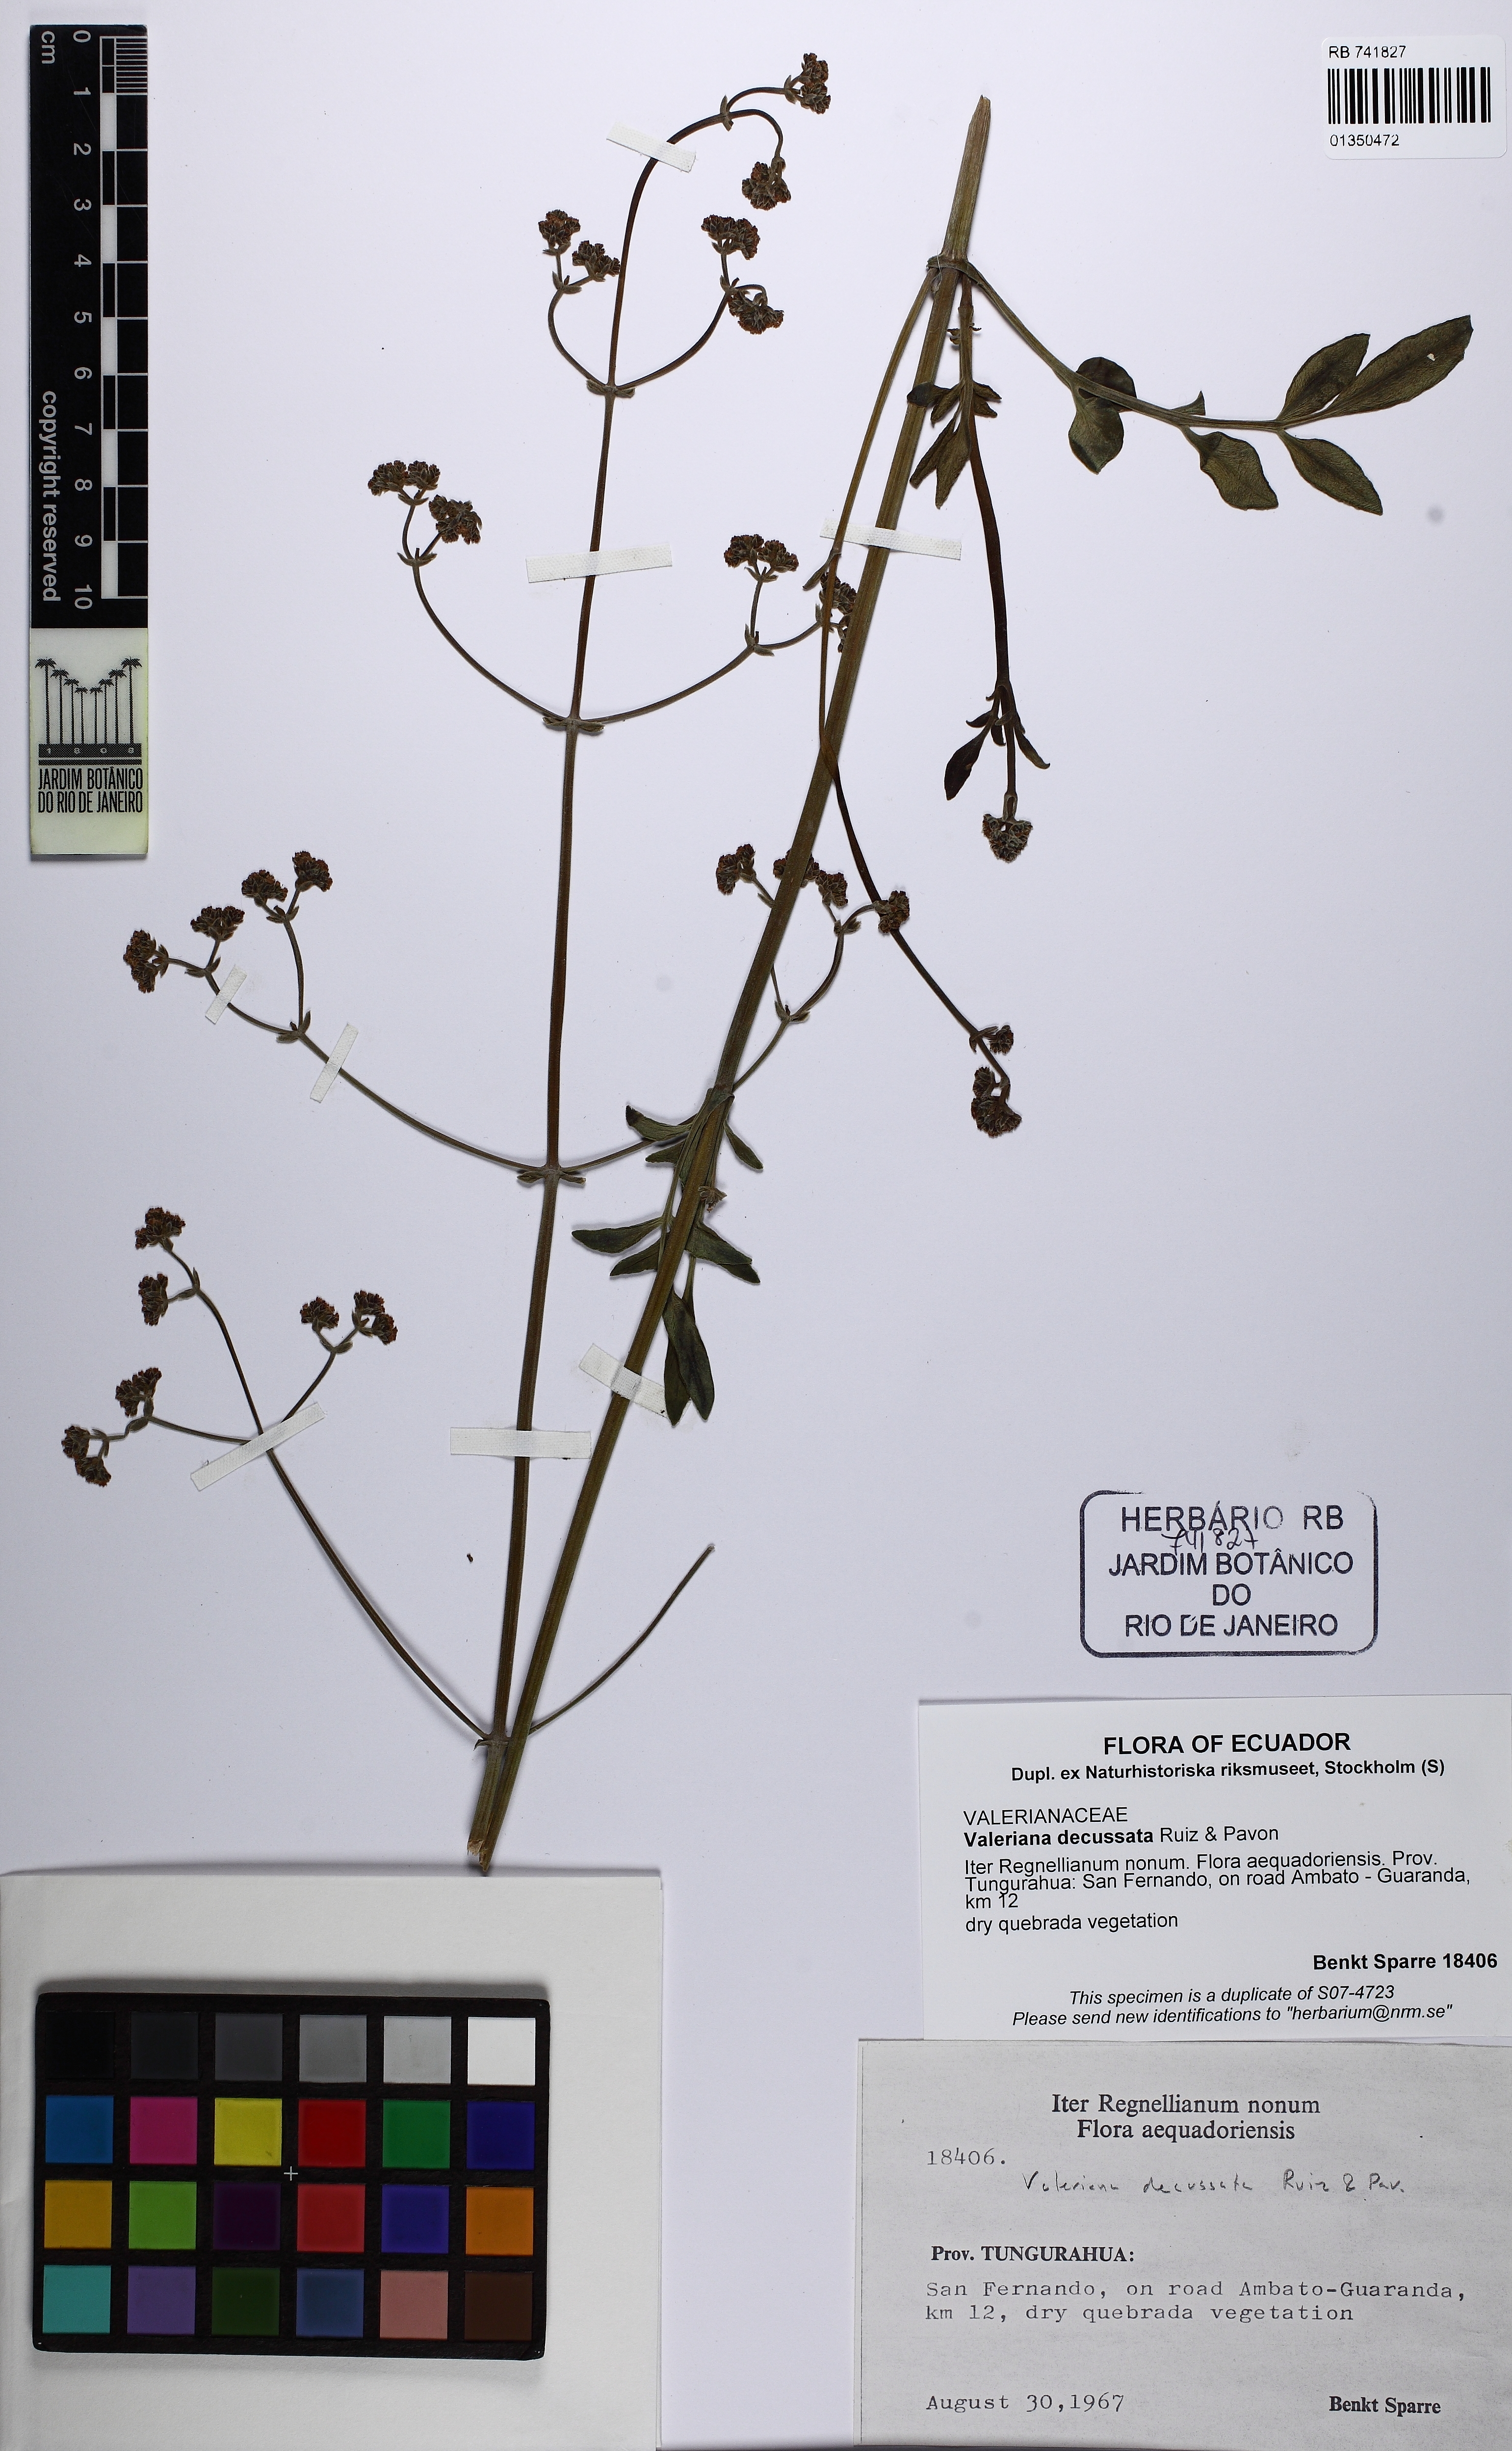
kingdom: Plantae
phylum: Tracheophyta
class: Magnoliopsida
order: Dipsacales
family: Caprifoliaceae
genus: Valeriana
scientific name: Valeriana decussata
